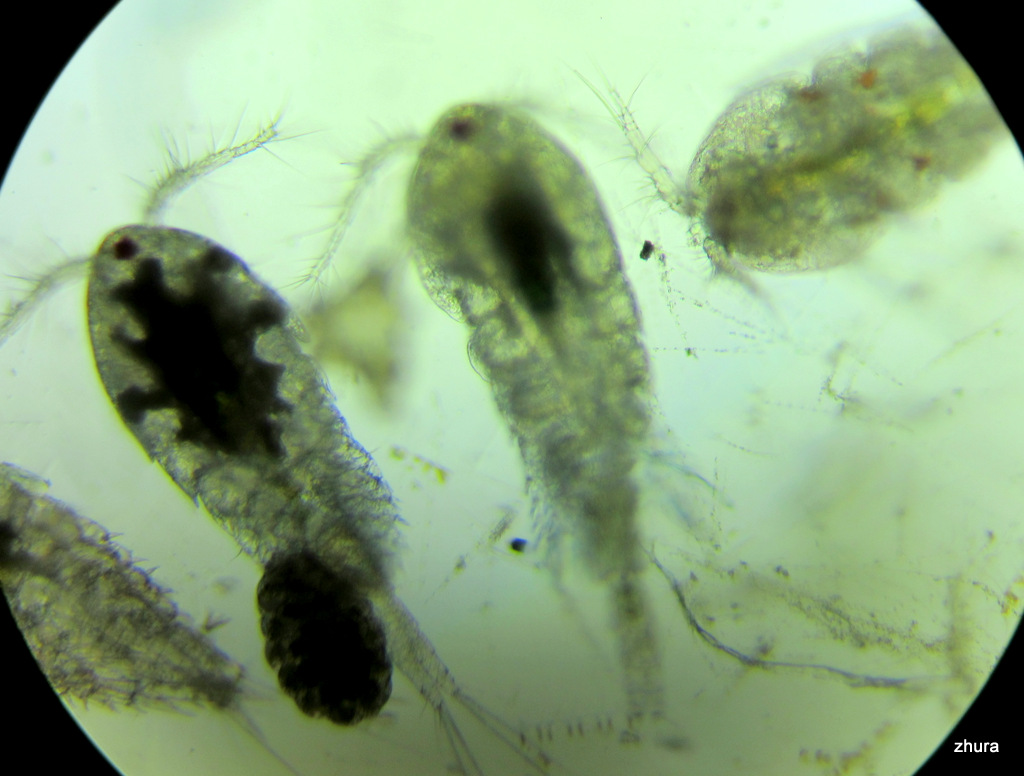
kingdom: Animalia
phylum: Arthropoda
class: Copepoda
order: Cyclopoida
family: Oncaeidae
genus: Oncaea
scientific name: Oncaea
